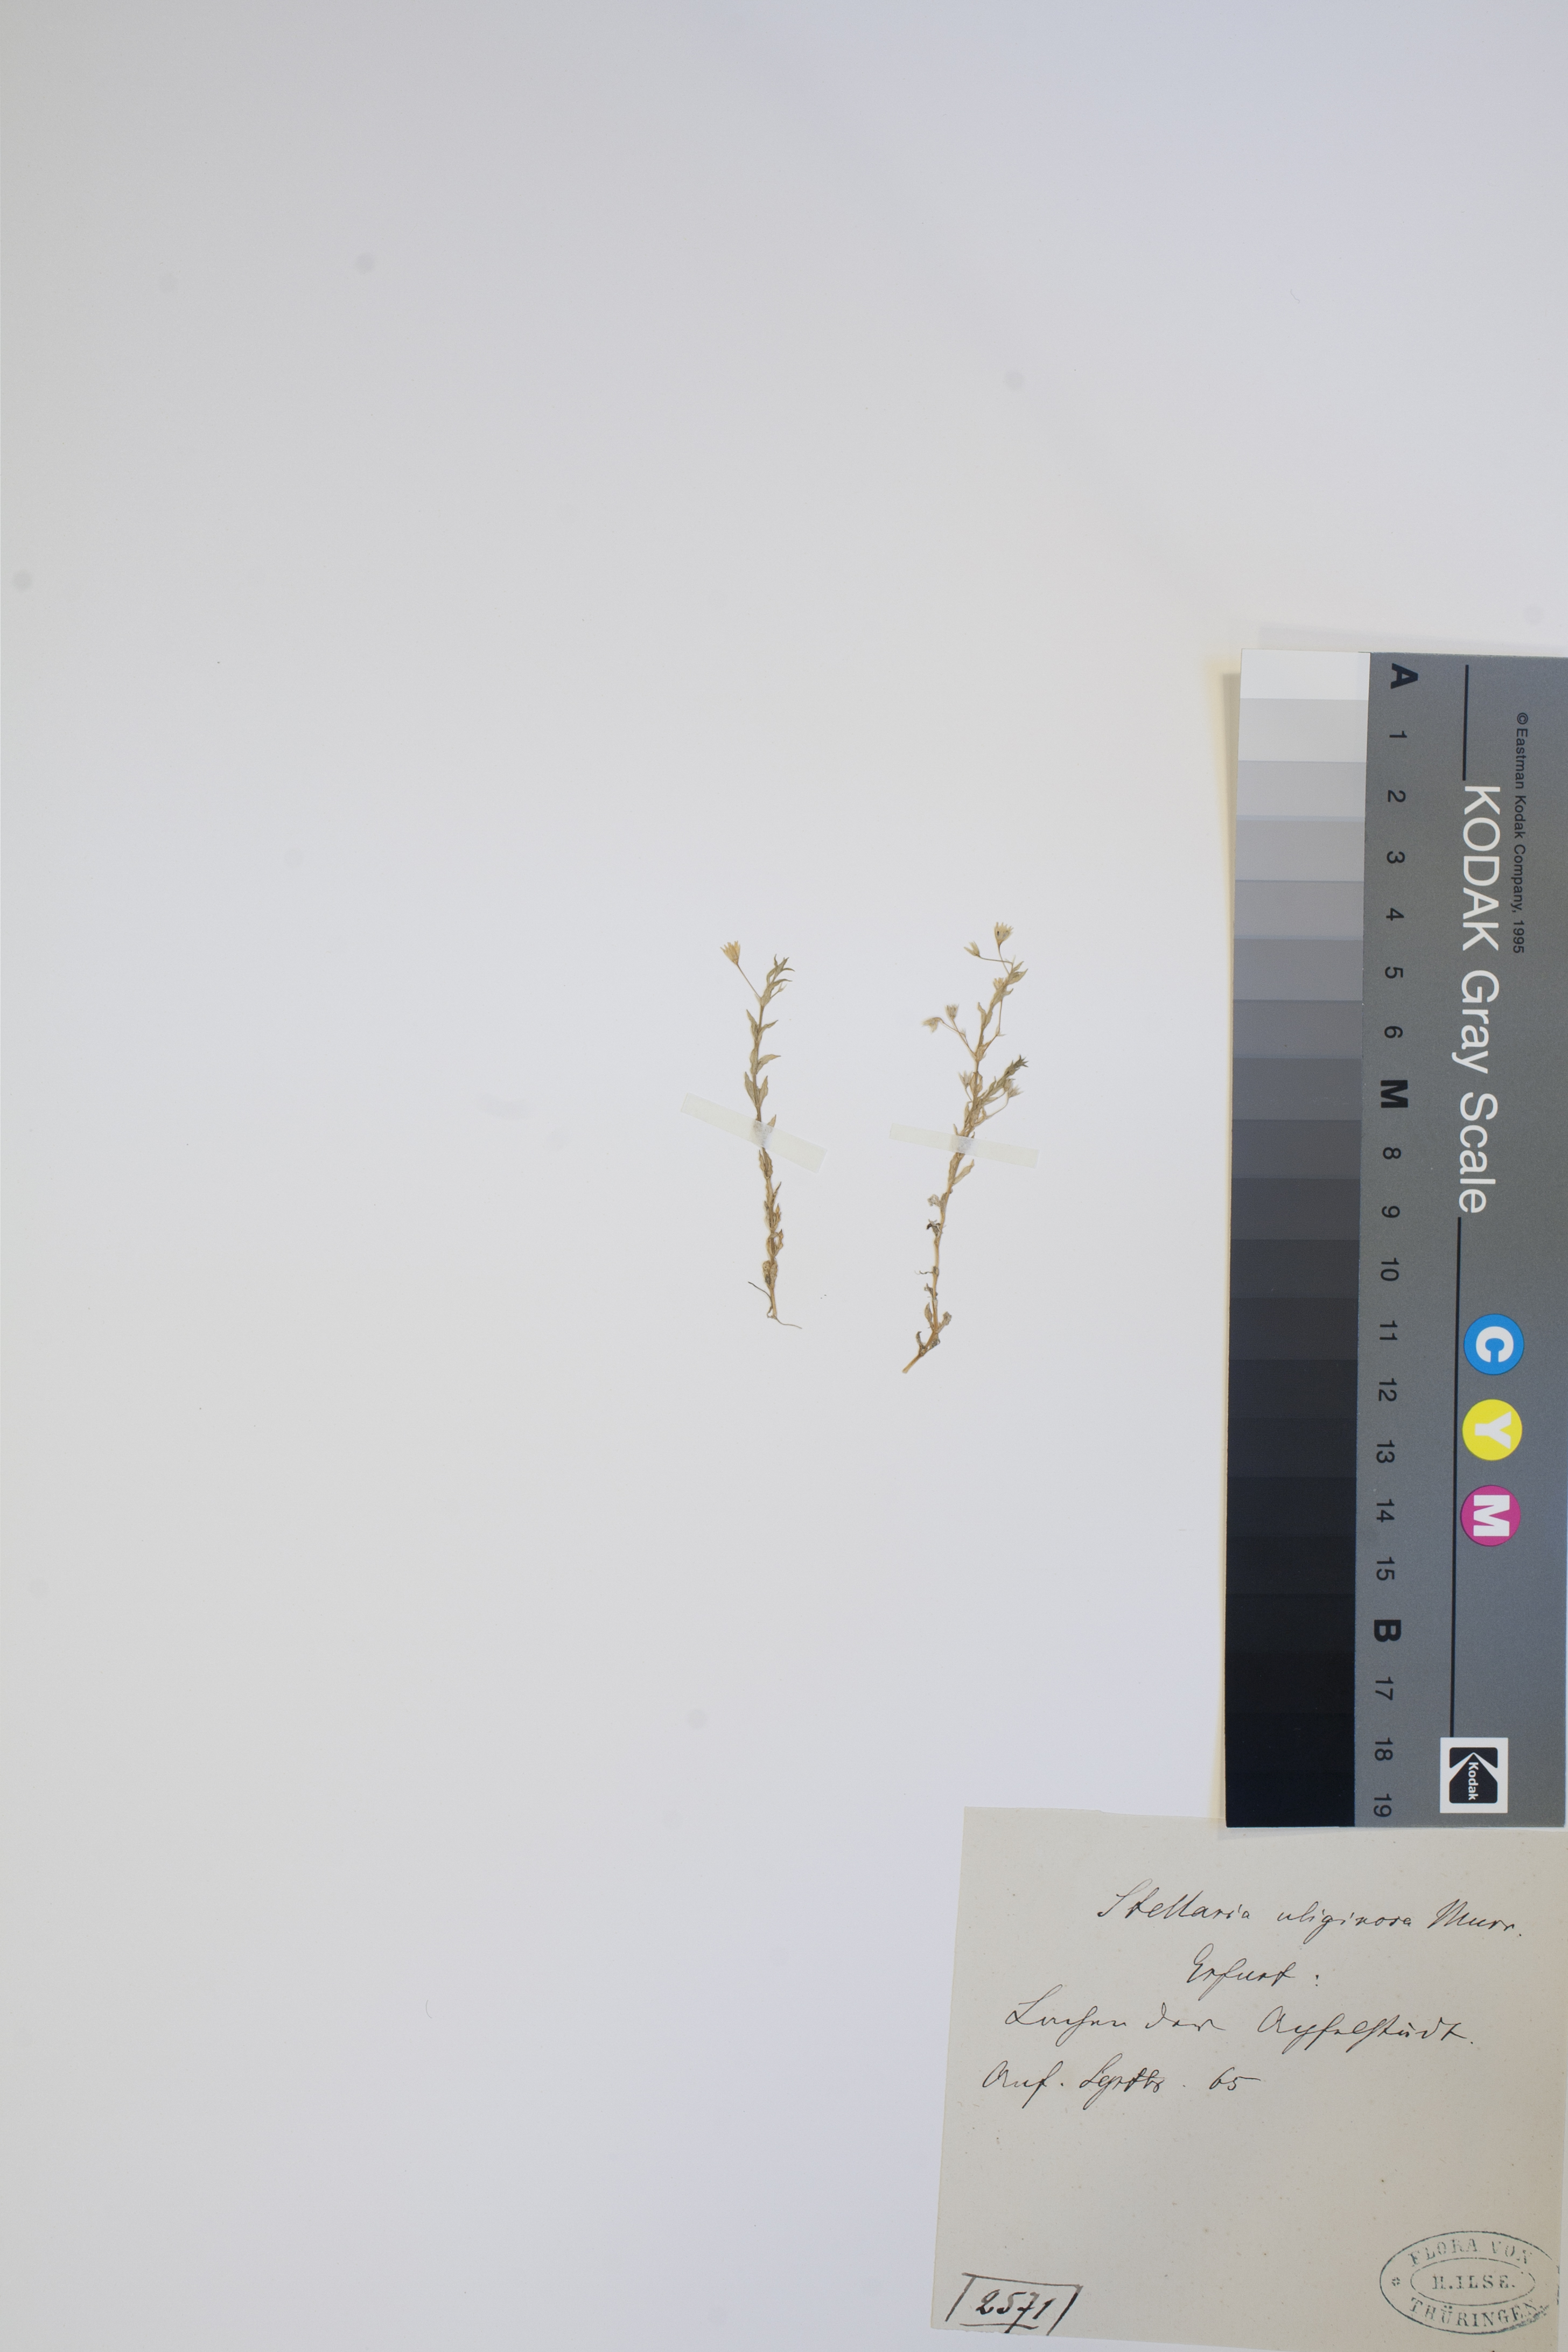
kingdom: Plantae
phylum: Tracheophyta
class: Magnoliopsida
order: Caryophyllales
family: Caryophyllaceae
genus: Stellaria
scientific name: Stellaria alsine
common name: Bog stitchwort
